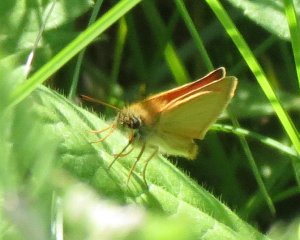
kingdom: Animalia
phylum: Arthropoda
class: Insecta
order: Lepidoptera
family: Hesperiidae
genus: Thymelicus
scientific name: Thymelicus lineola
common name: European Skipper
